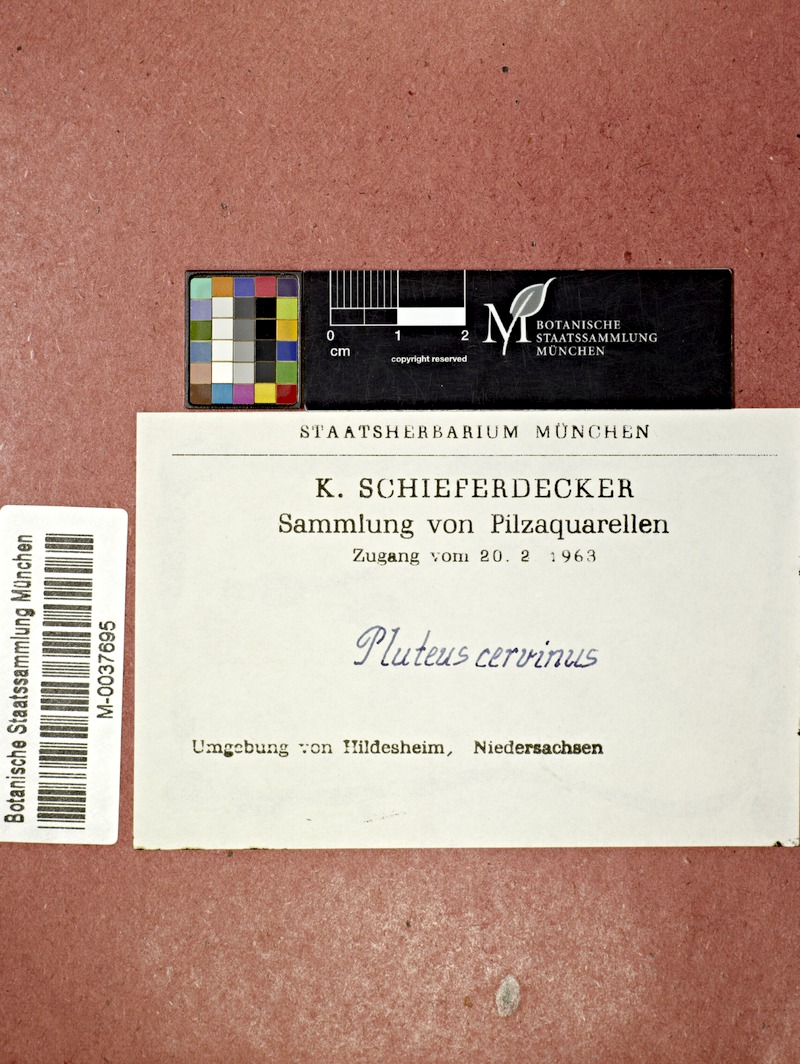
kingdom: Fungi
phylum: Basidiomycota
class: Agaricomycetes
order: Agaricales
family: Pluteaceae
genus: Pluteus
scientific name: Pluteus cervinus
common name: Deer shield
